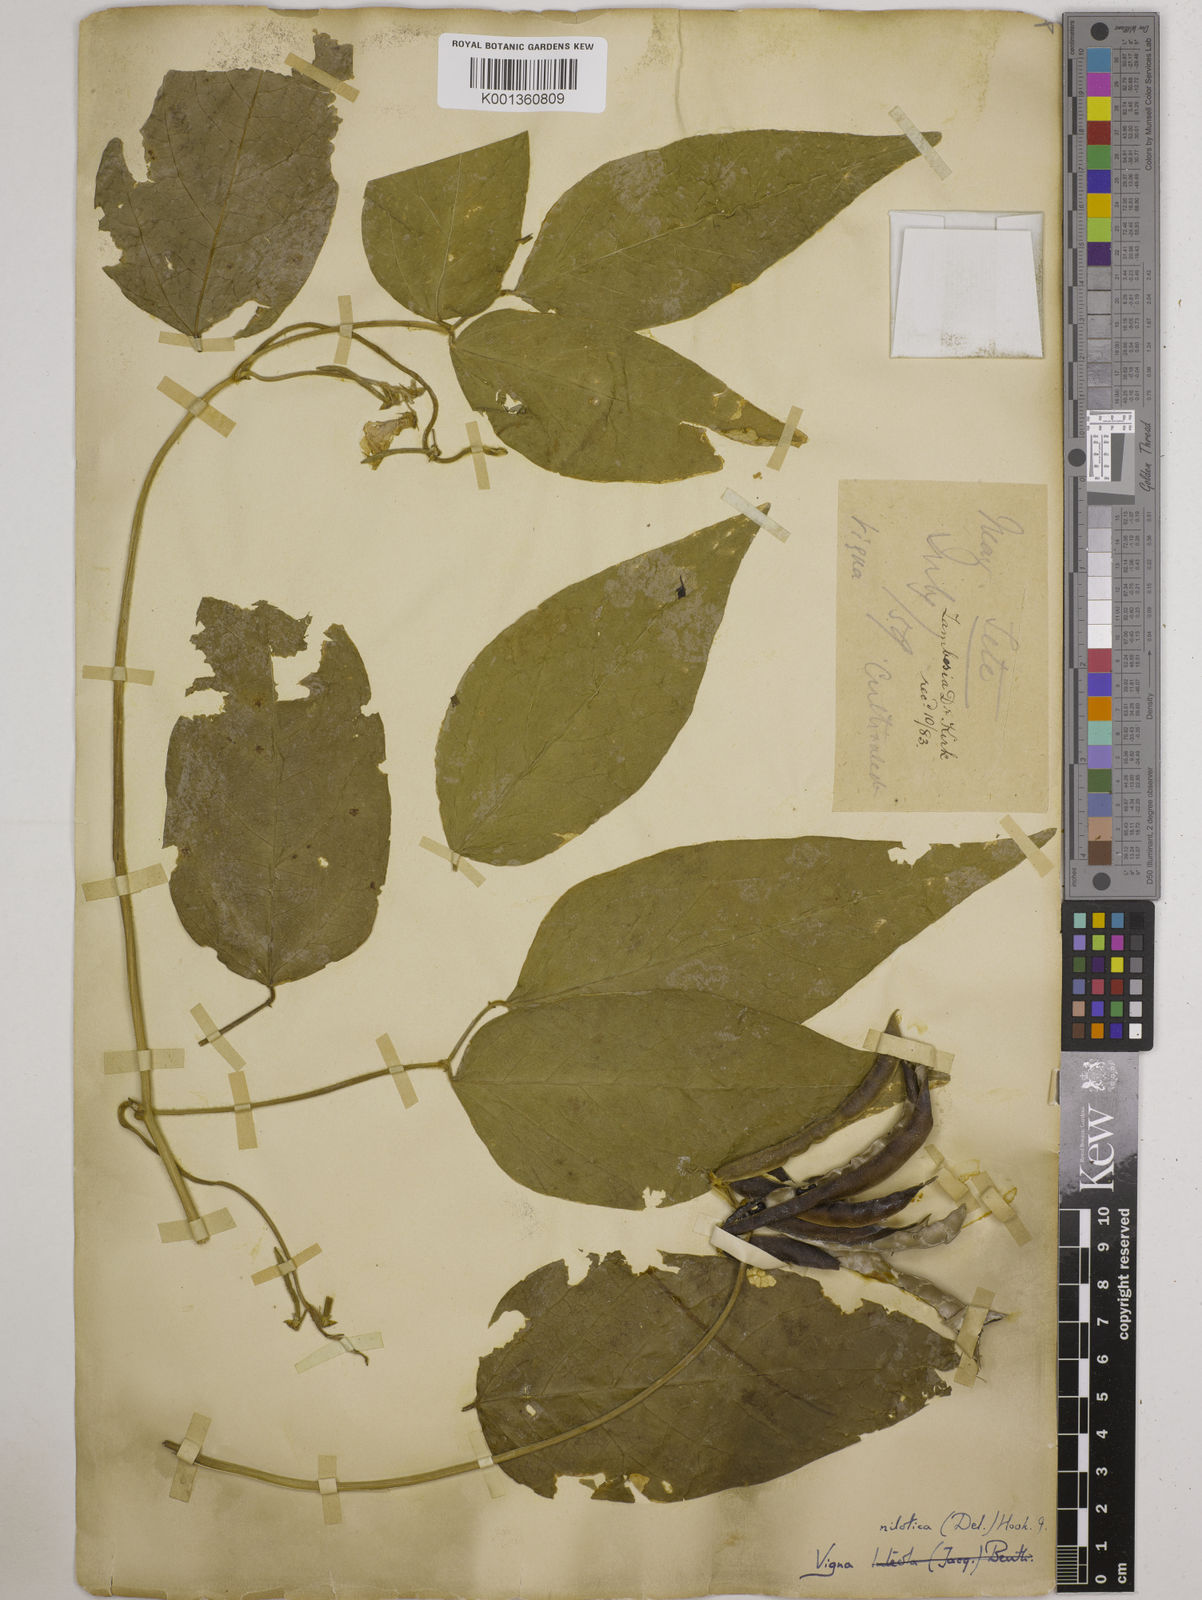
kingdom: Plantae
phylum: Tracheophyta
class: Magnoliopsida
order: Fabales
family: Fabaceae
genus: Vigna
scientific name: Vigna luteola
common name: Hairypod cowpea
